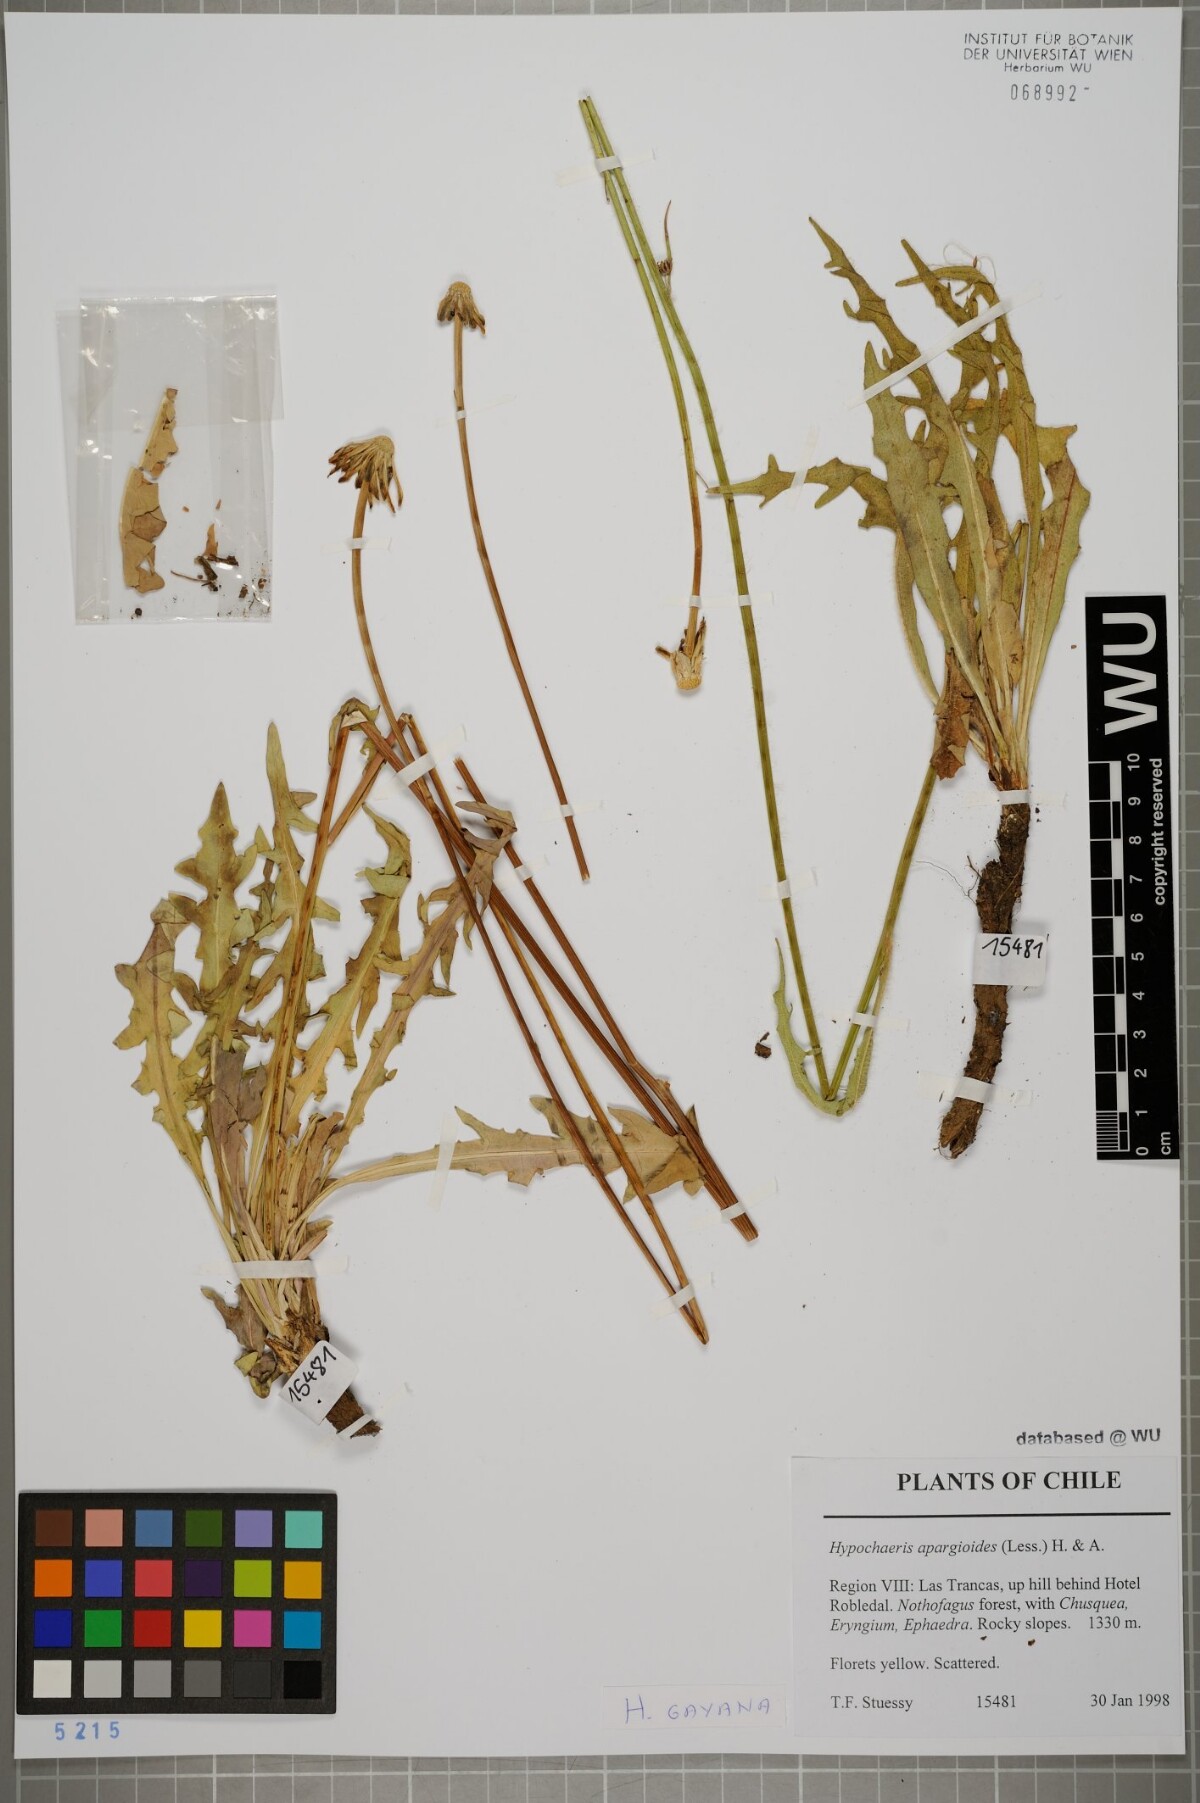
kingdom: Plantae
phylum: Tracheophyta
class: Magnoliopsida
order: Asterales
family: Asteraceae
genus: Hypochaeris
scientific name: Hypochaeris apargioides
